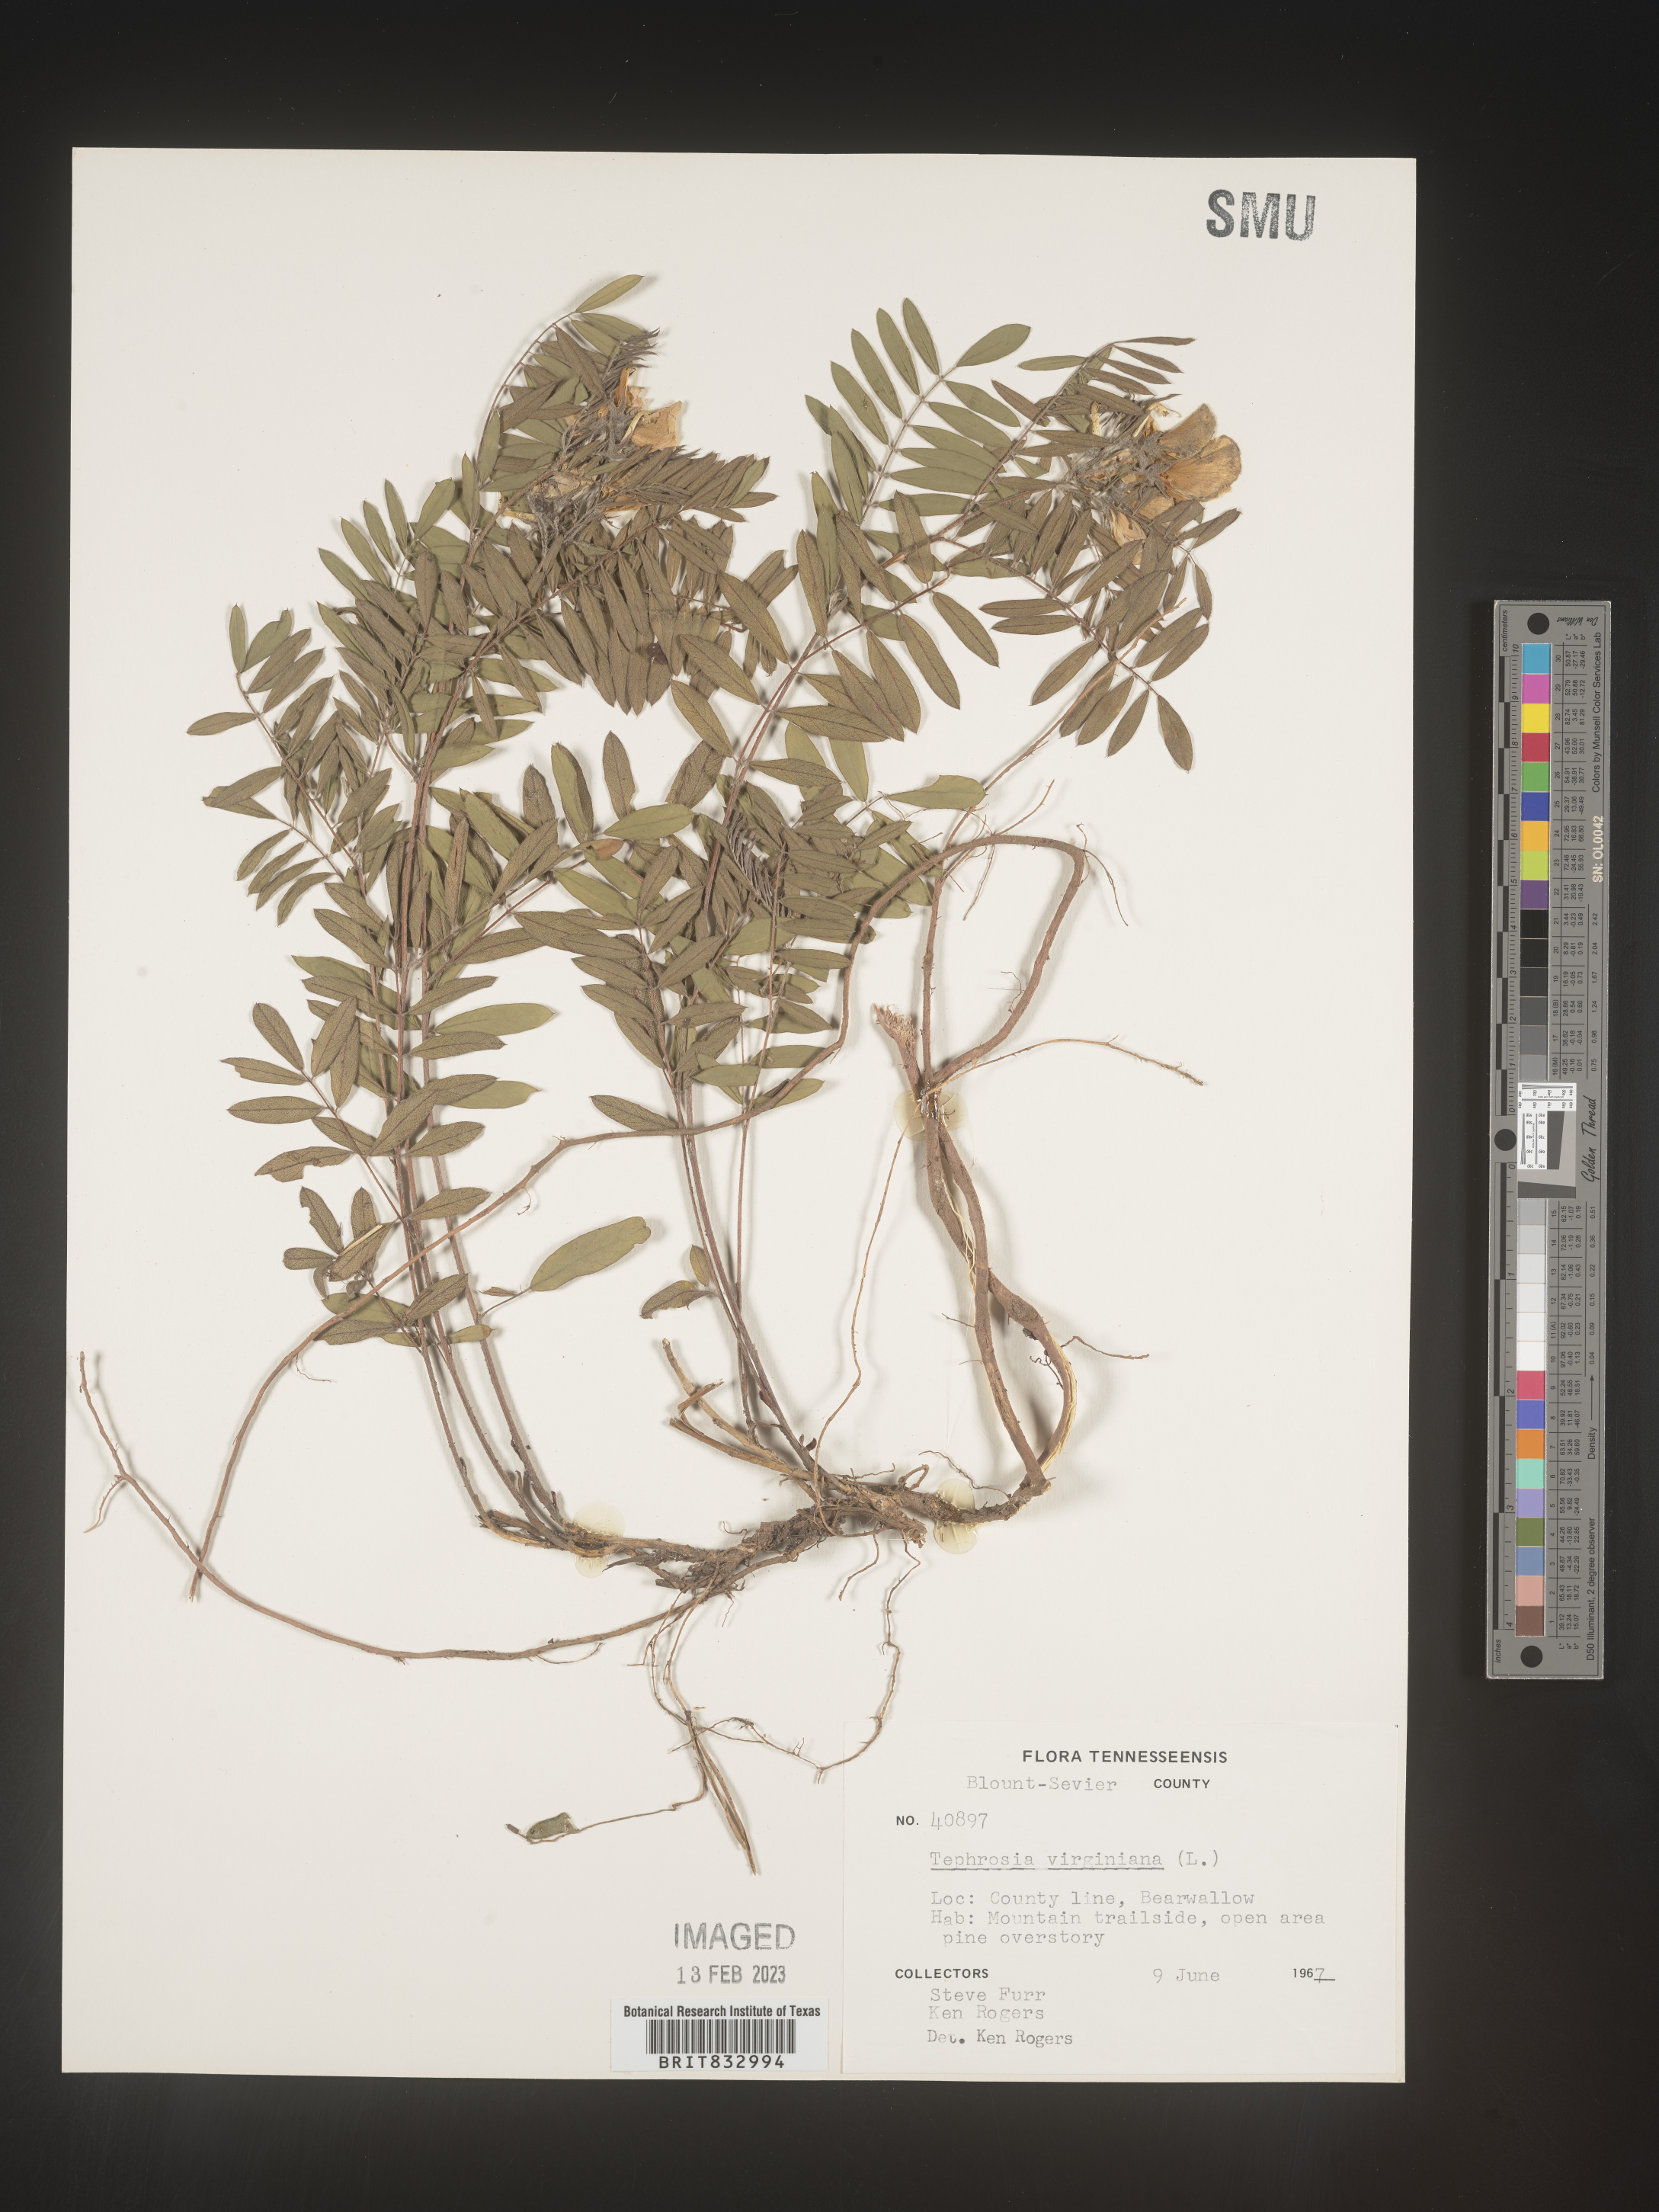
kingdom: Plantae
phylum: Tracheophyta
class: Magnoliopsida
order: Fabales
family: Fabaceae
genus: Tephrosia
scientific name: Tephrosia virginiana
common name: Rabbit-pea
